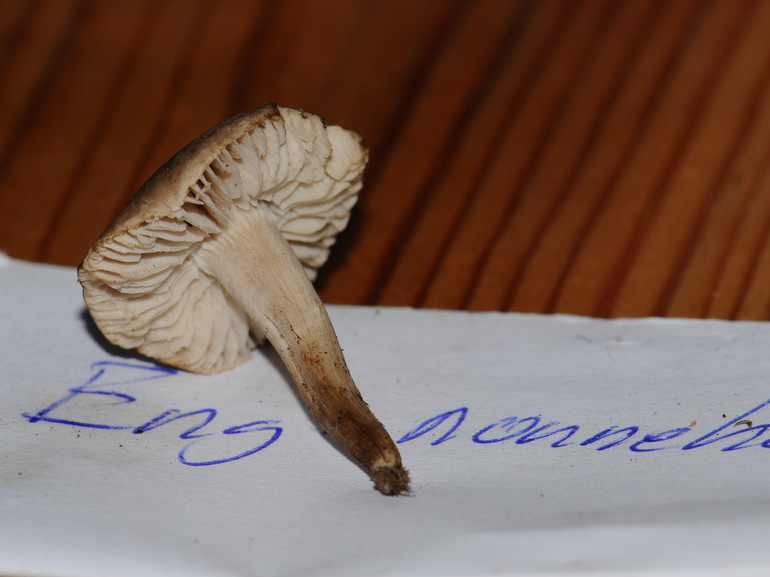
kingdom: Fungi
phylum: Basidiomycota
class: Agaricomycetes
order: Agaricales
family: Tricholomataceae
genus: Dermoloma
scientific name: Dermoloma cuneifolium
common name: eng-nonnehat
